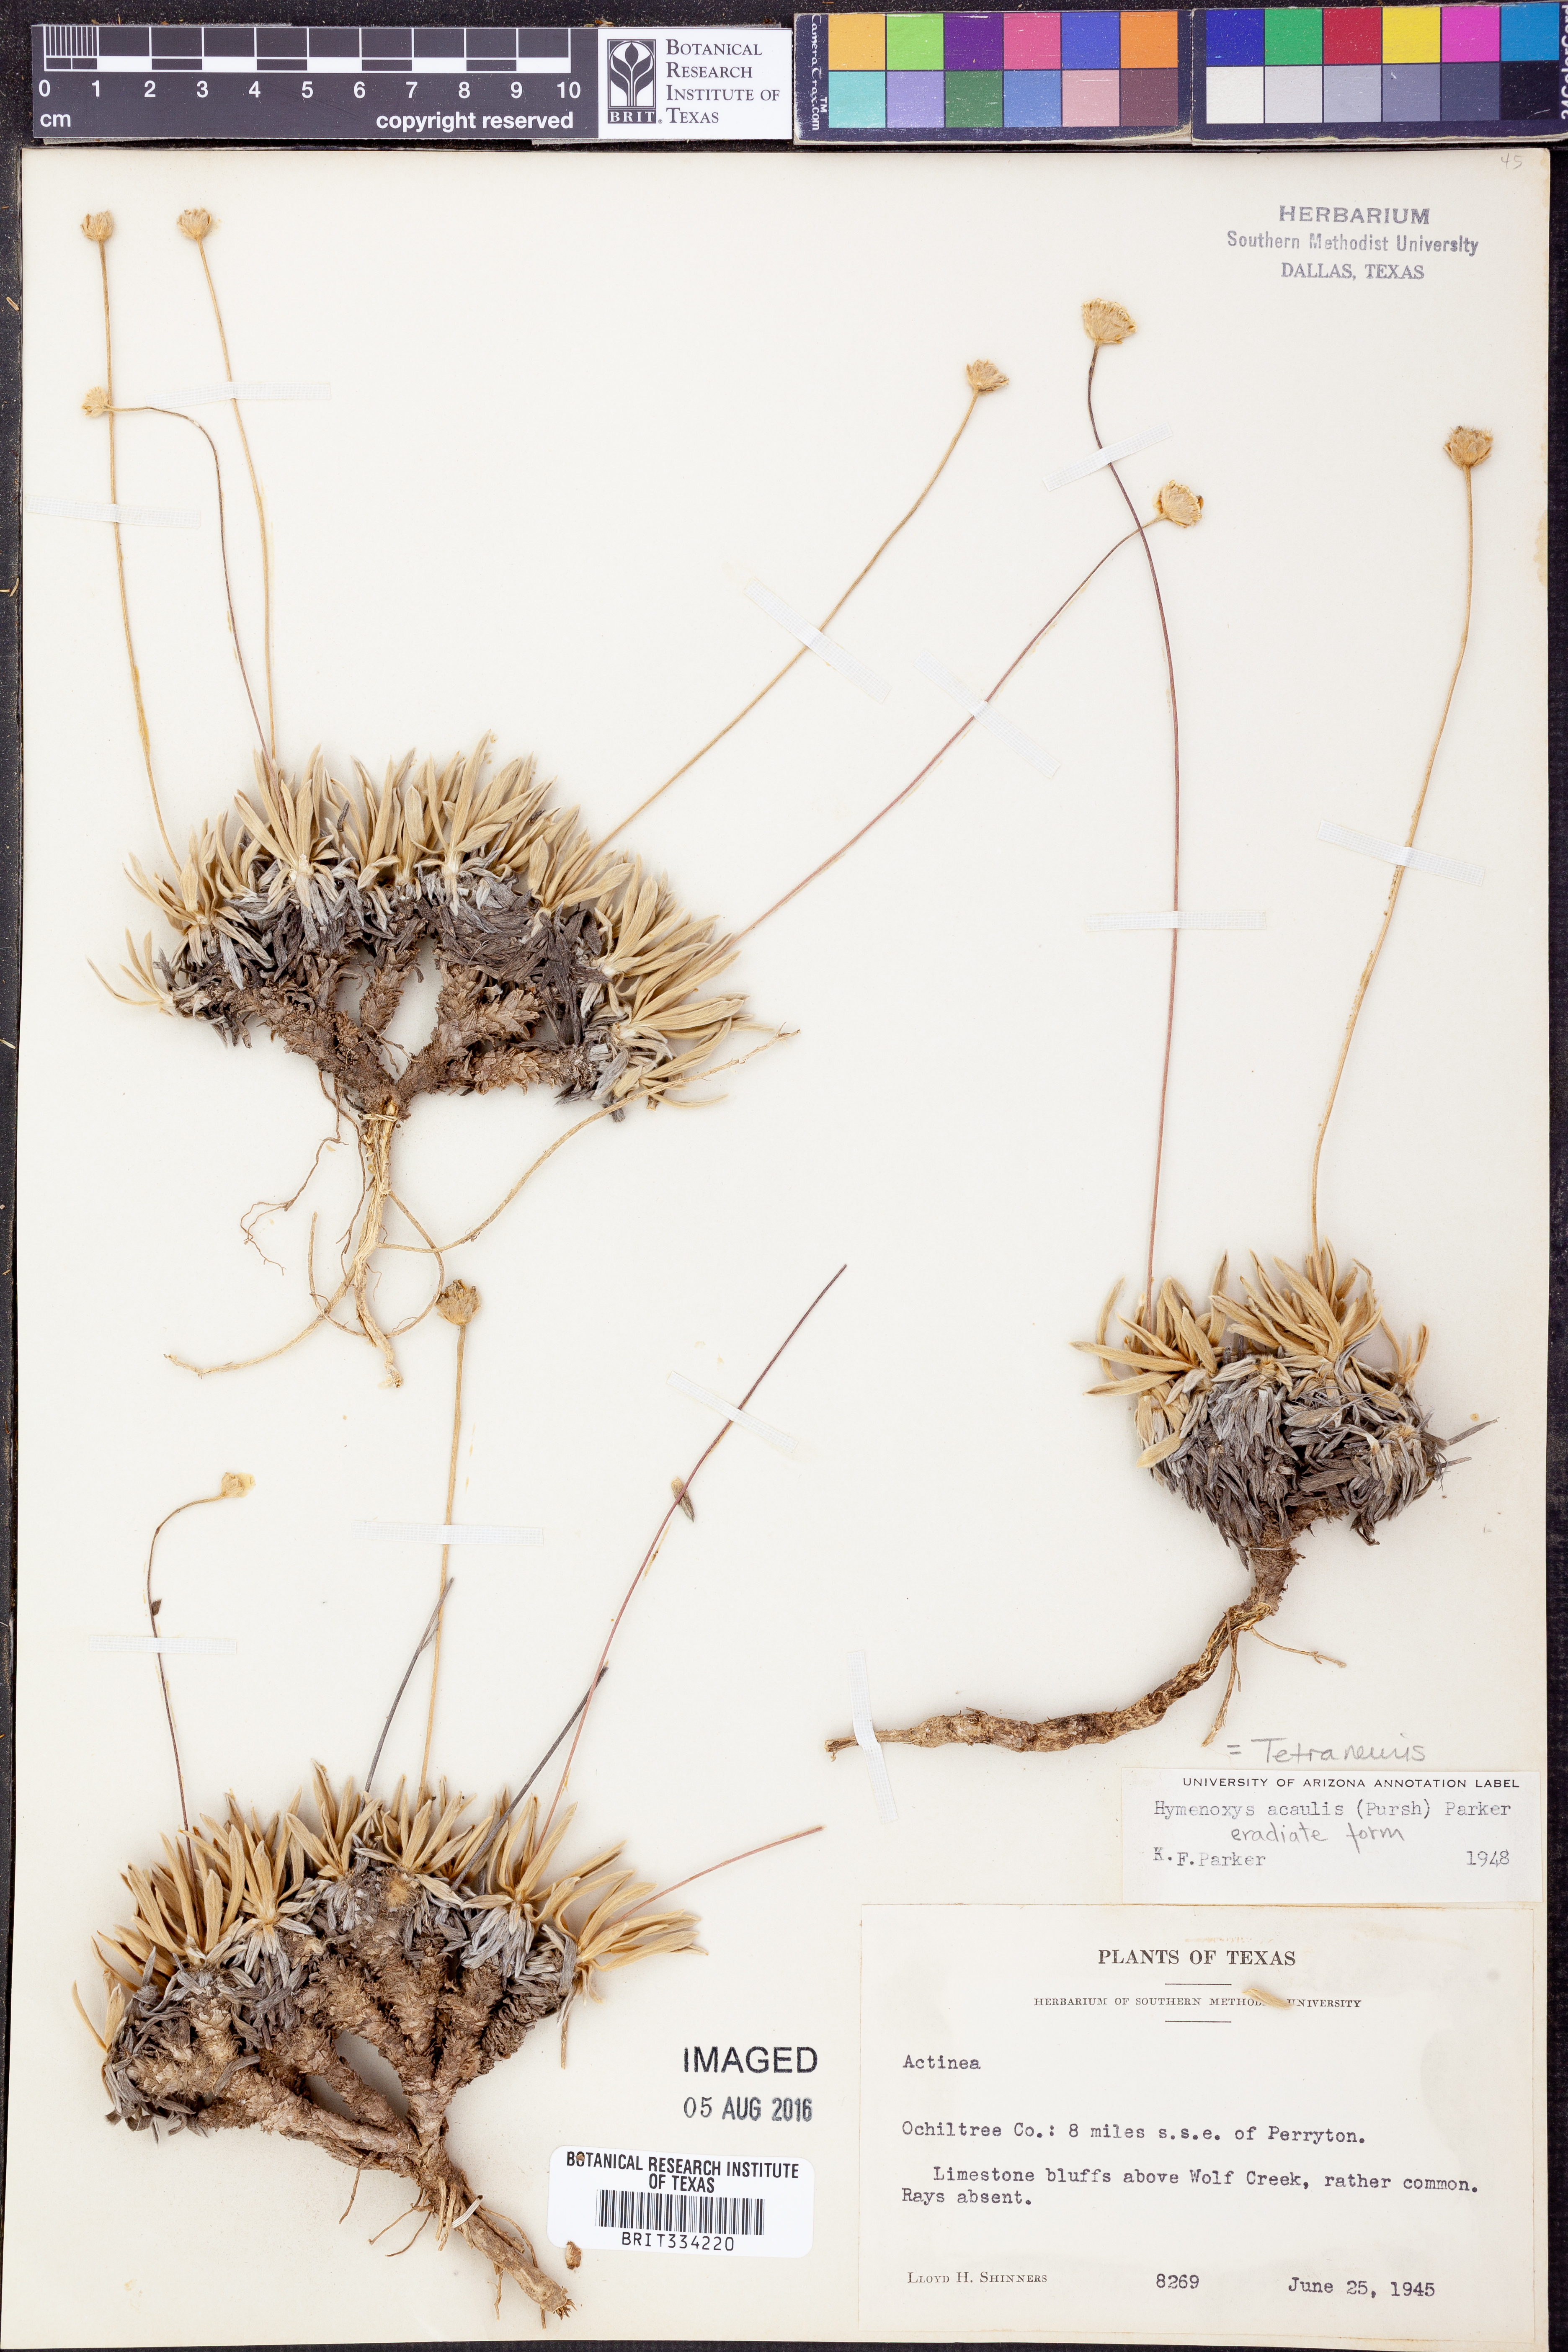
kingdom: Plantae
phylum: Tracheophyta
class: Magnoliopsida
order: Asterales
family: Asteraceae
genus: Tetraneuris
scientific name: Tetraneuris acaulis
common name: Butte marigold
